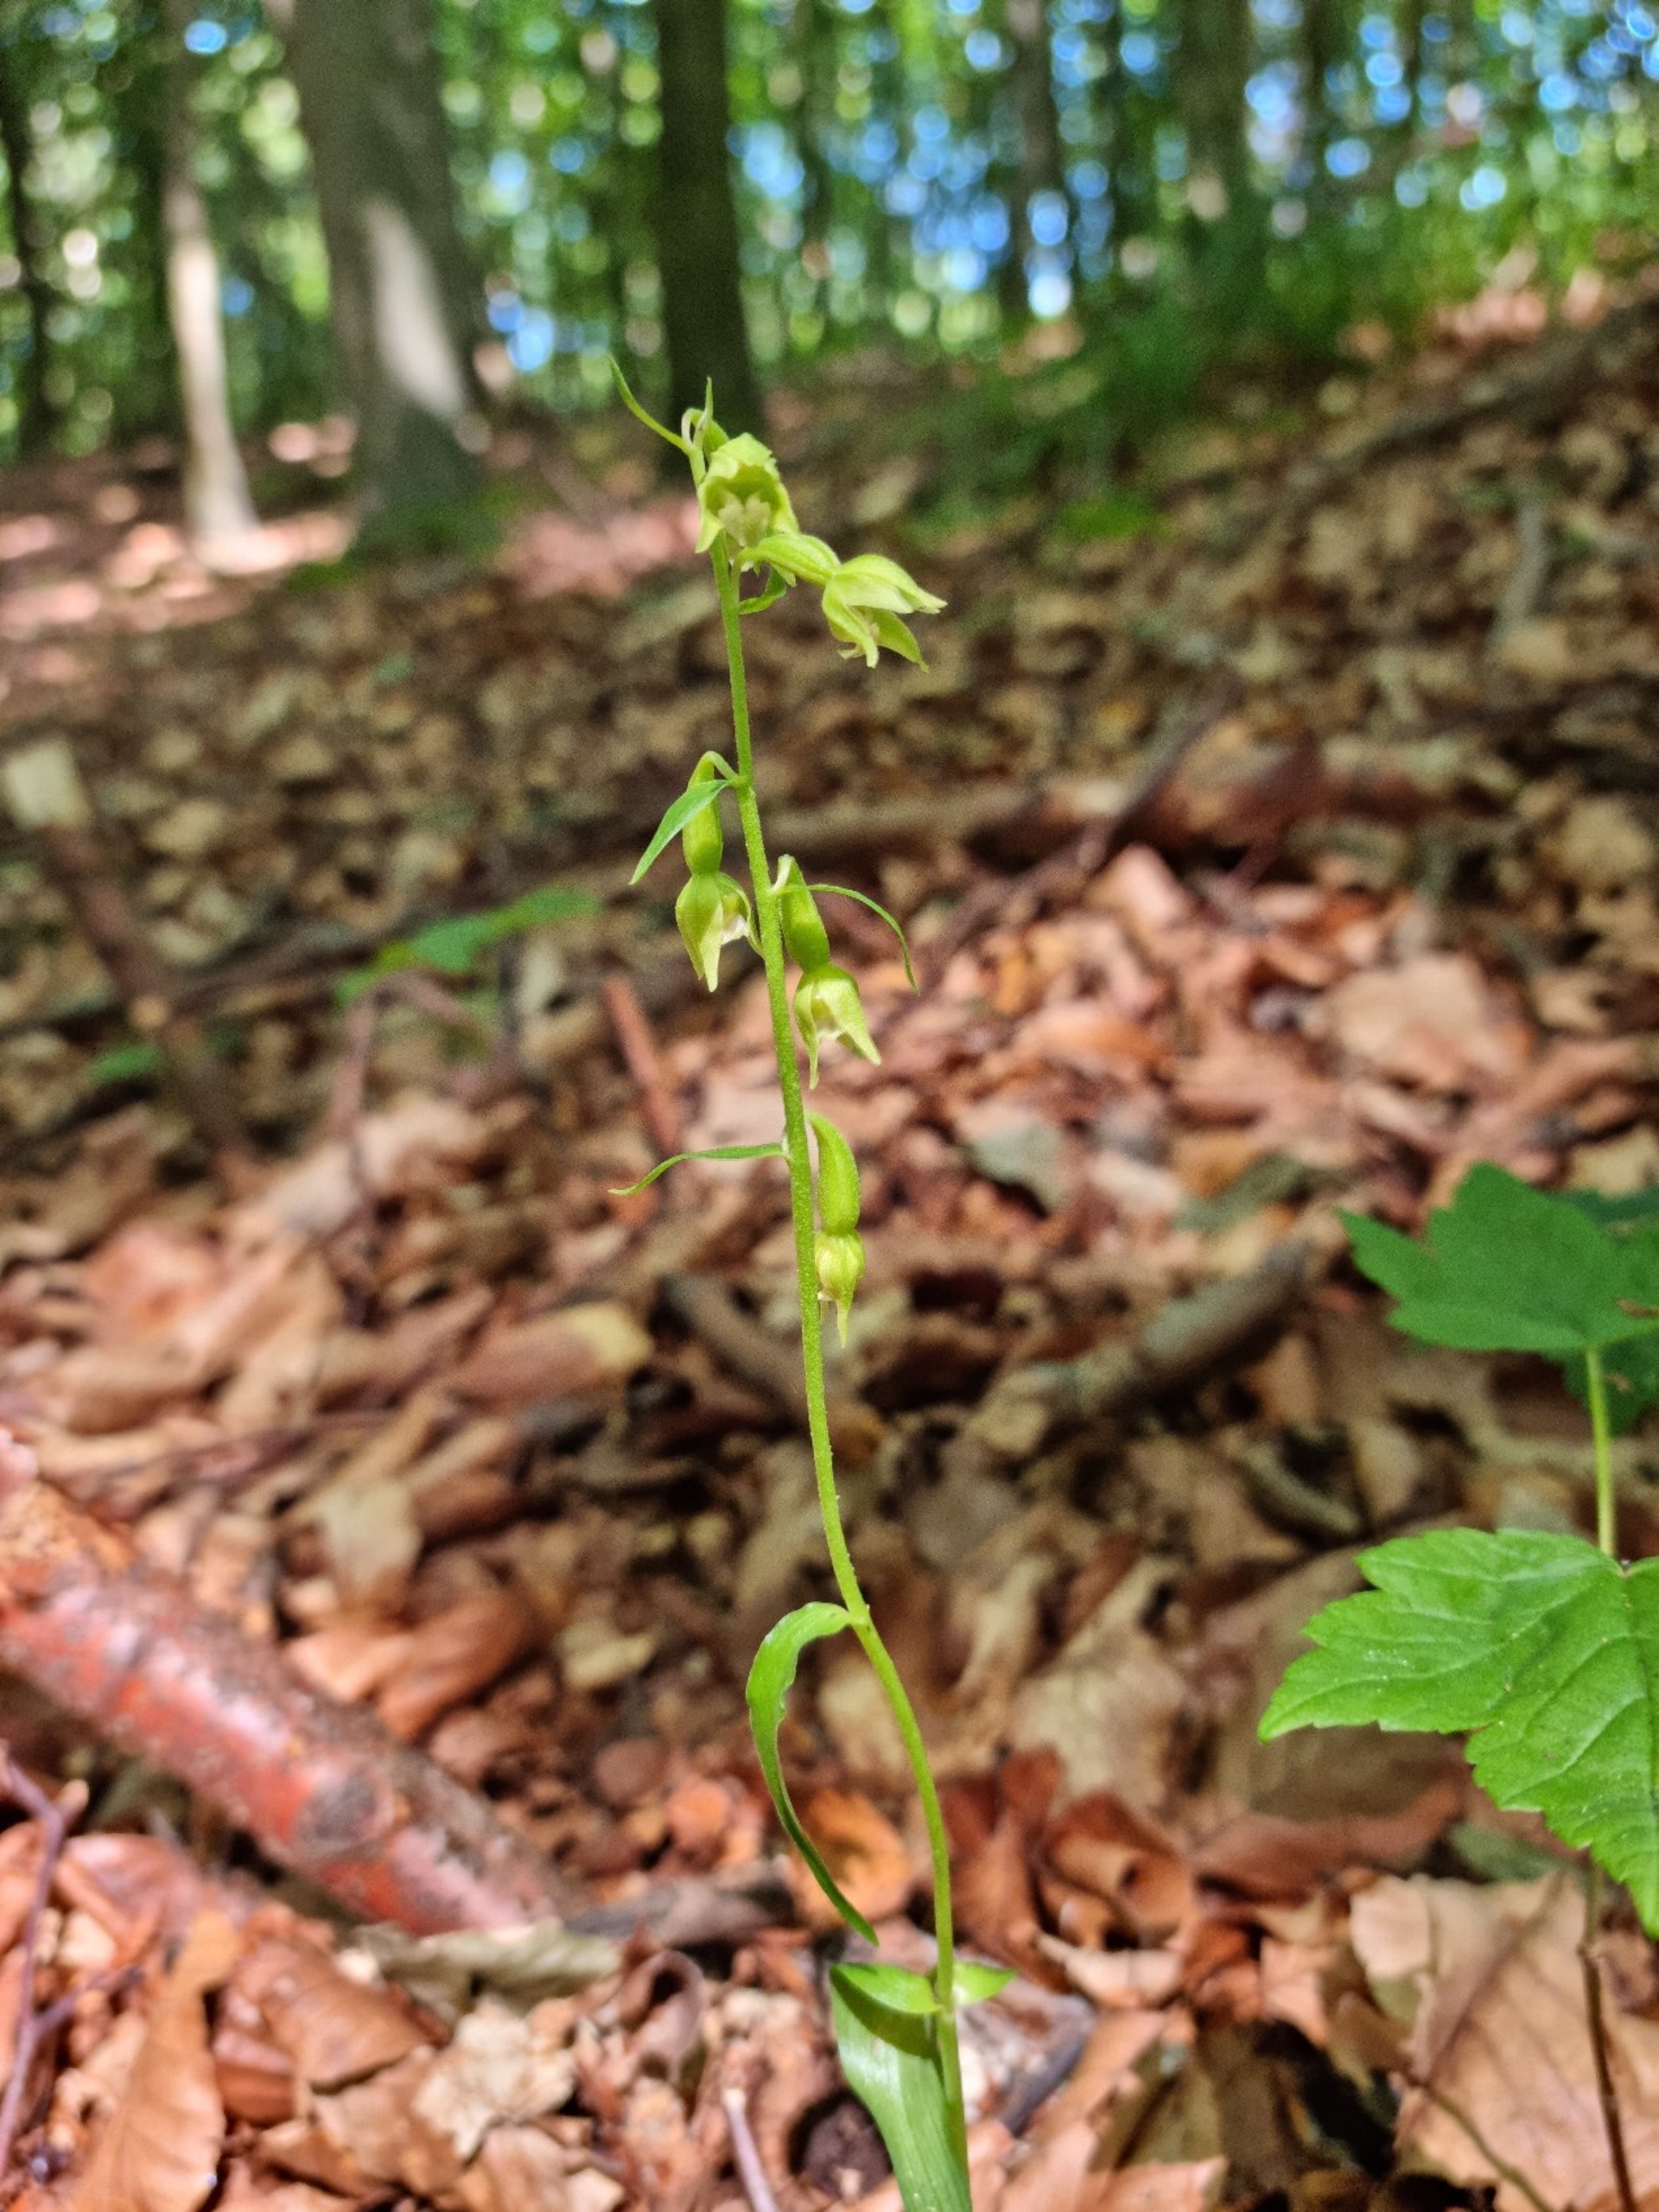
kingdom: Plantae
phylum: Tracheophyta
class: Liliopsida
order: Asparagales
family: Orchidaceae
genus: Epipactis
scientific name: Epipactis phyllanthes
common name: Nikkende hullæbe
